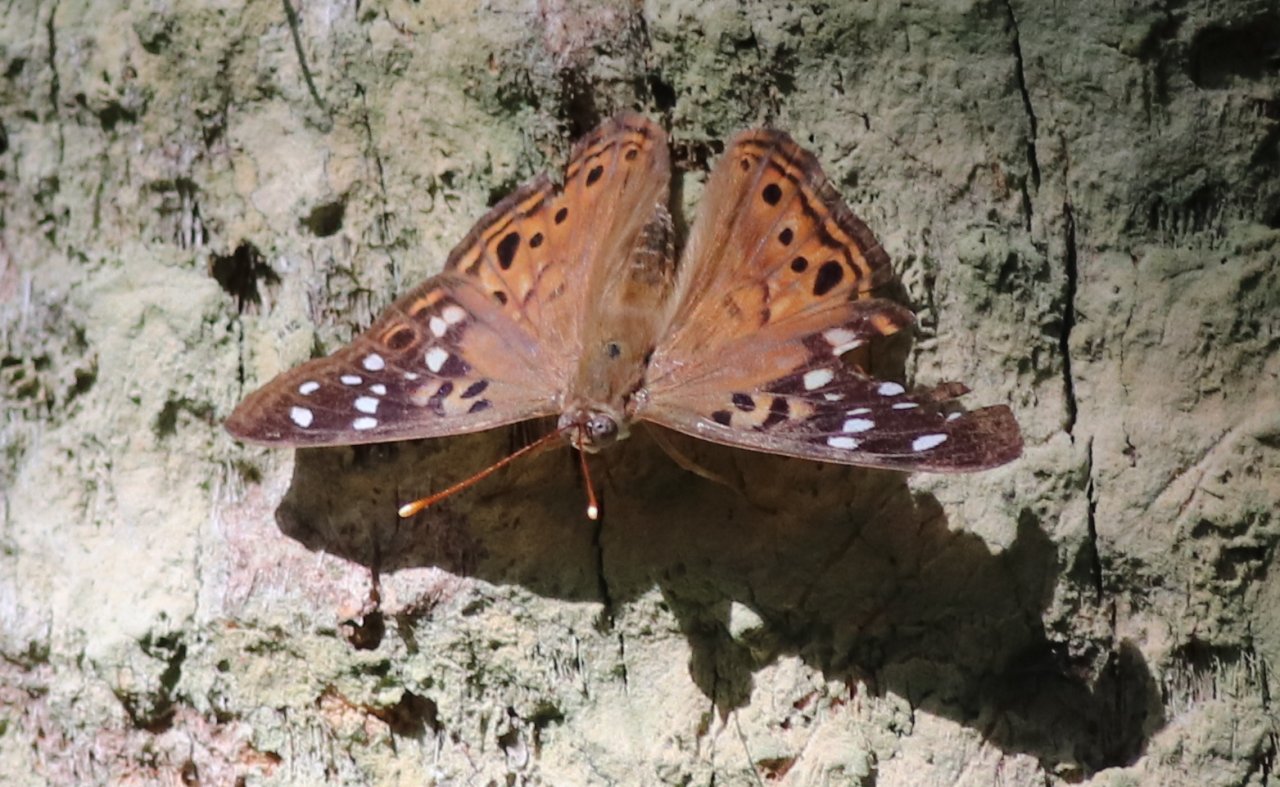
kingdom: Animalia
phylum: Arthropoda
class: Insecta
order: Lepidoptera
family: Nymphalidae
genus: Asterocampa
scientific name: Asterocampa celtis
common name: Hackberry Emperor
